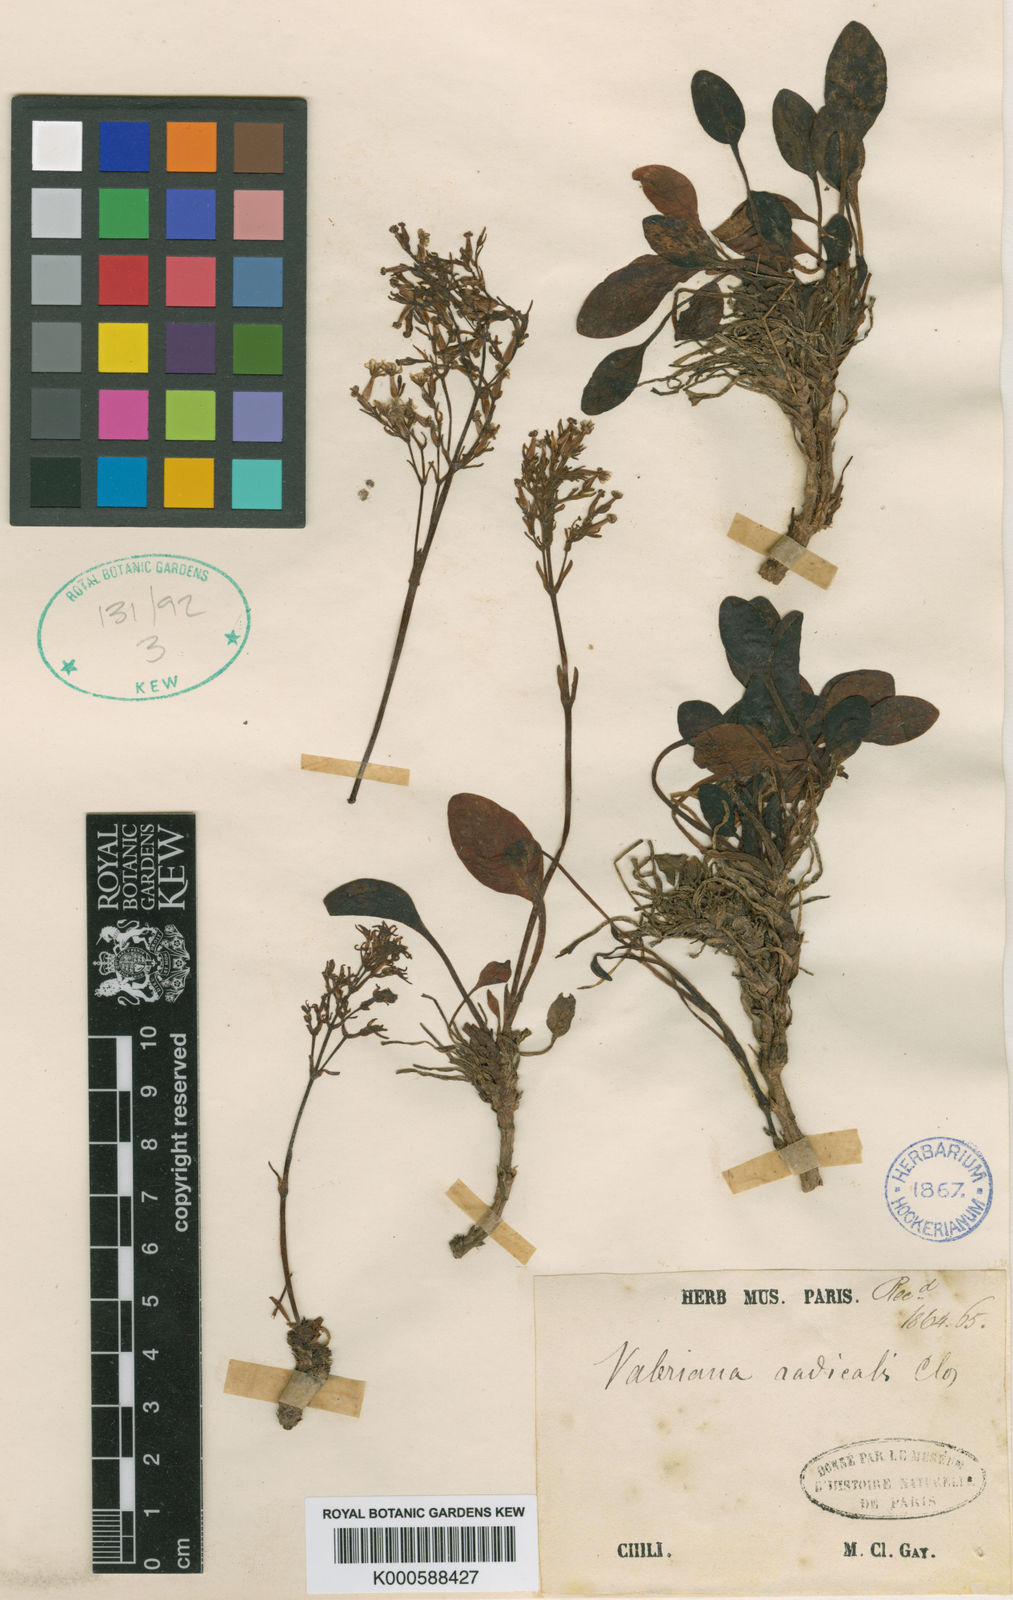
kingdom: Plantae
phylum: Tracheophyta
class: Magnoliopsida
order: Dipsacales
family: Caprifoliaceae
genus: Valeriana
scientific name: Valeriana radicalis
